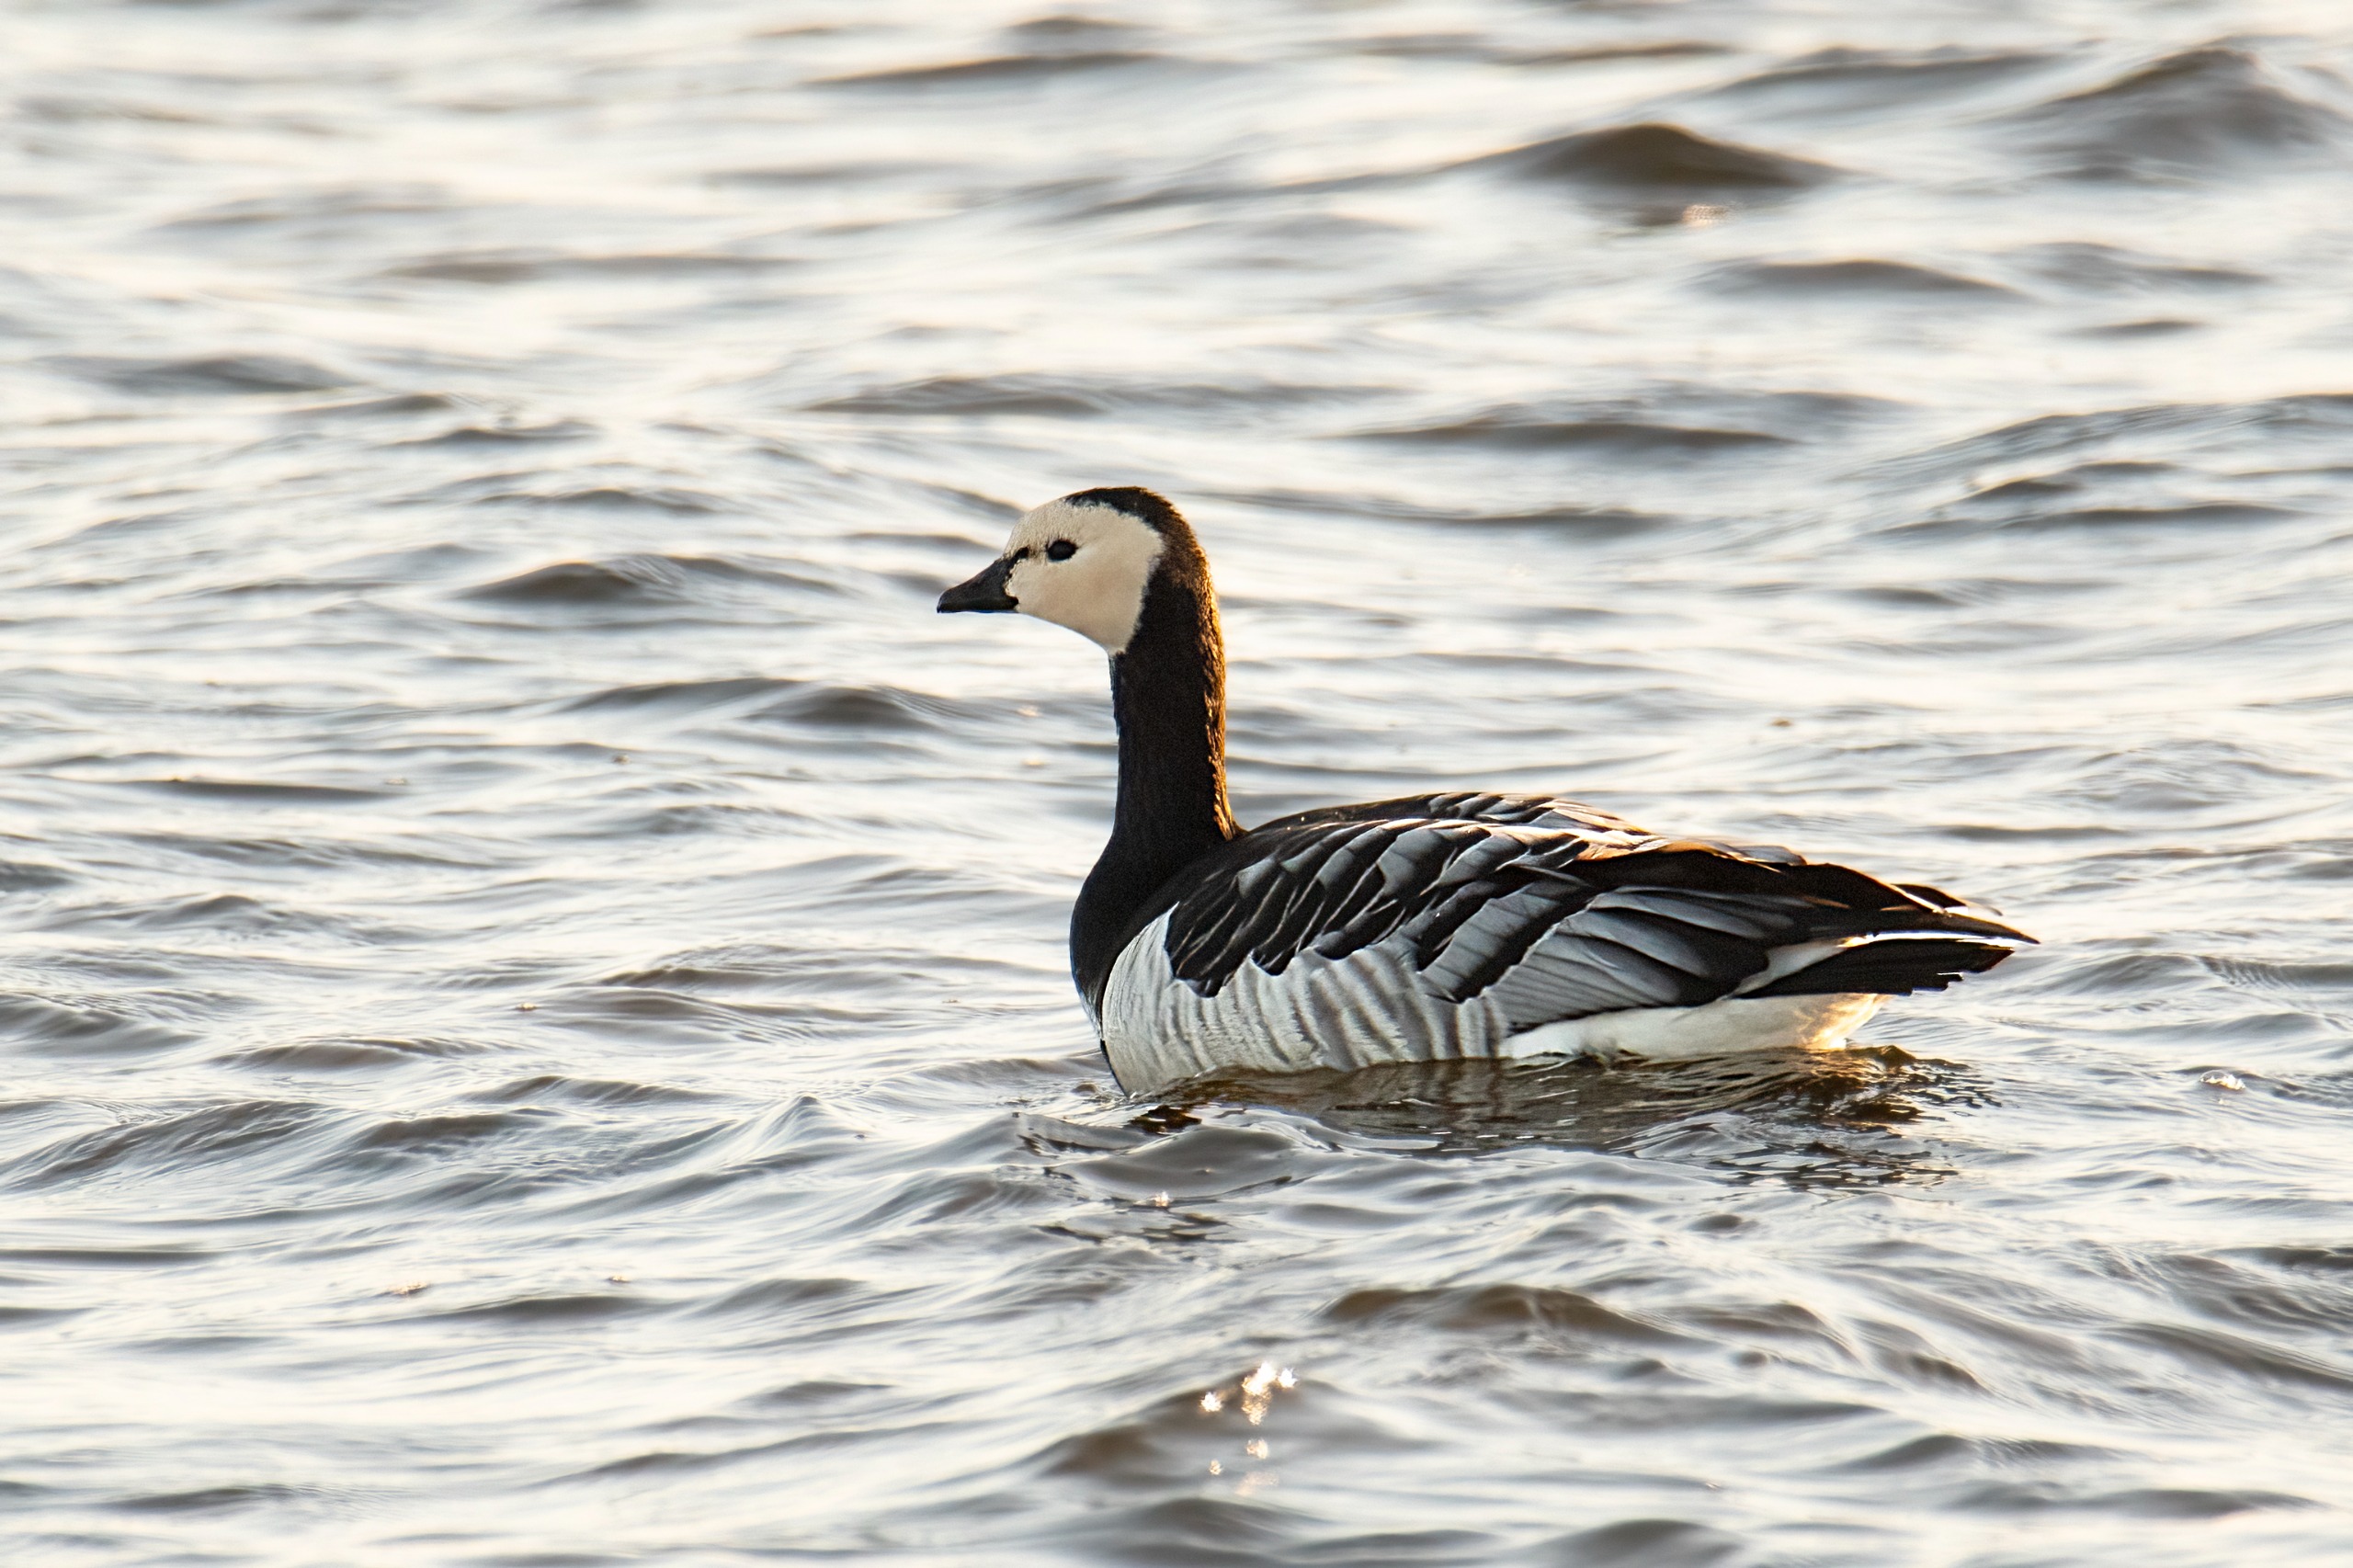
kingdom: Animalia
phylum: Chordata
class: Aves
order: Anseriformes
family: Anatidae
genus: Branta
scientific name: Branta leucopsis
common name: Bramgås
